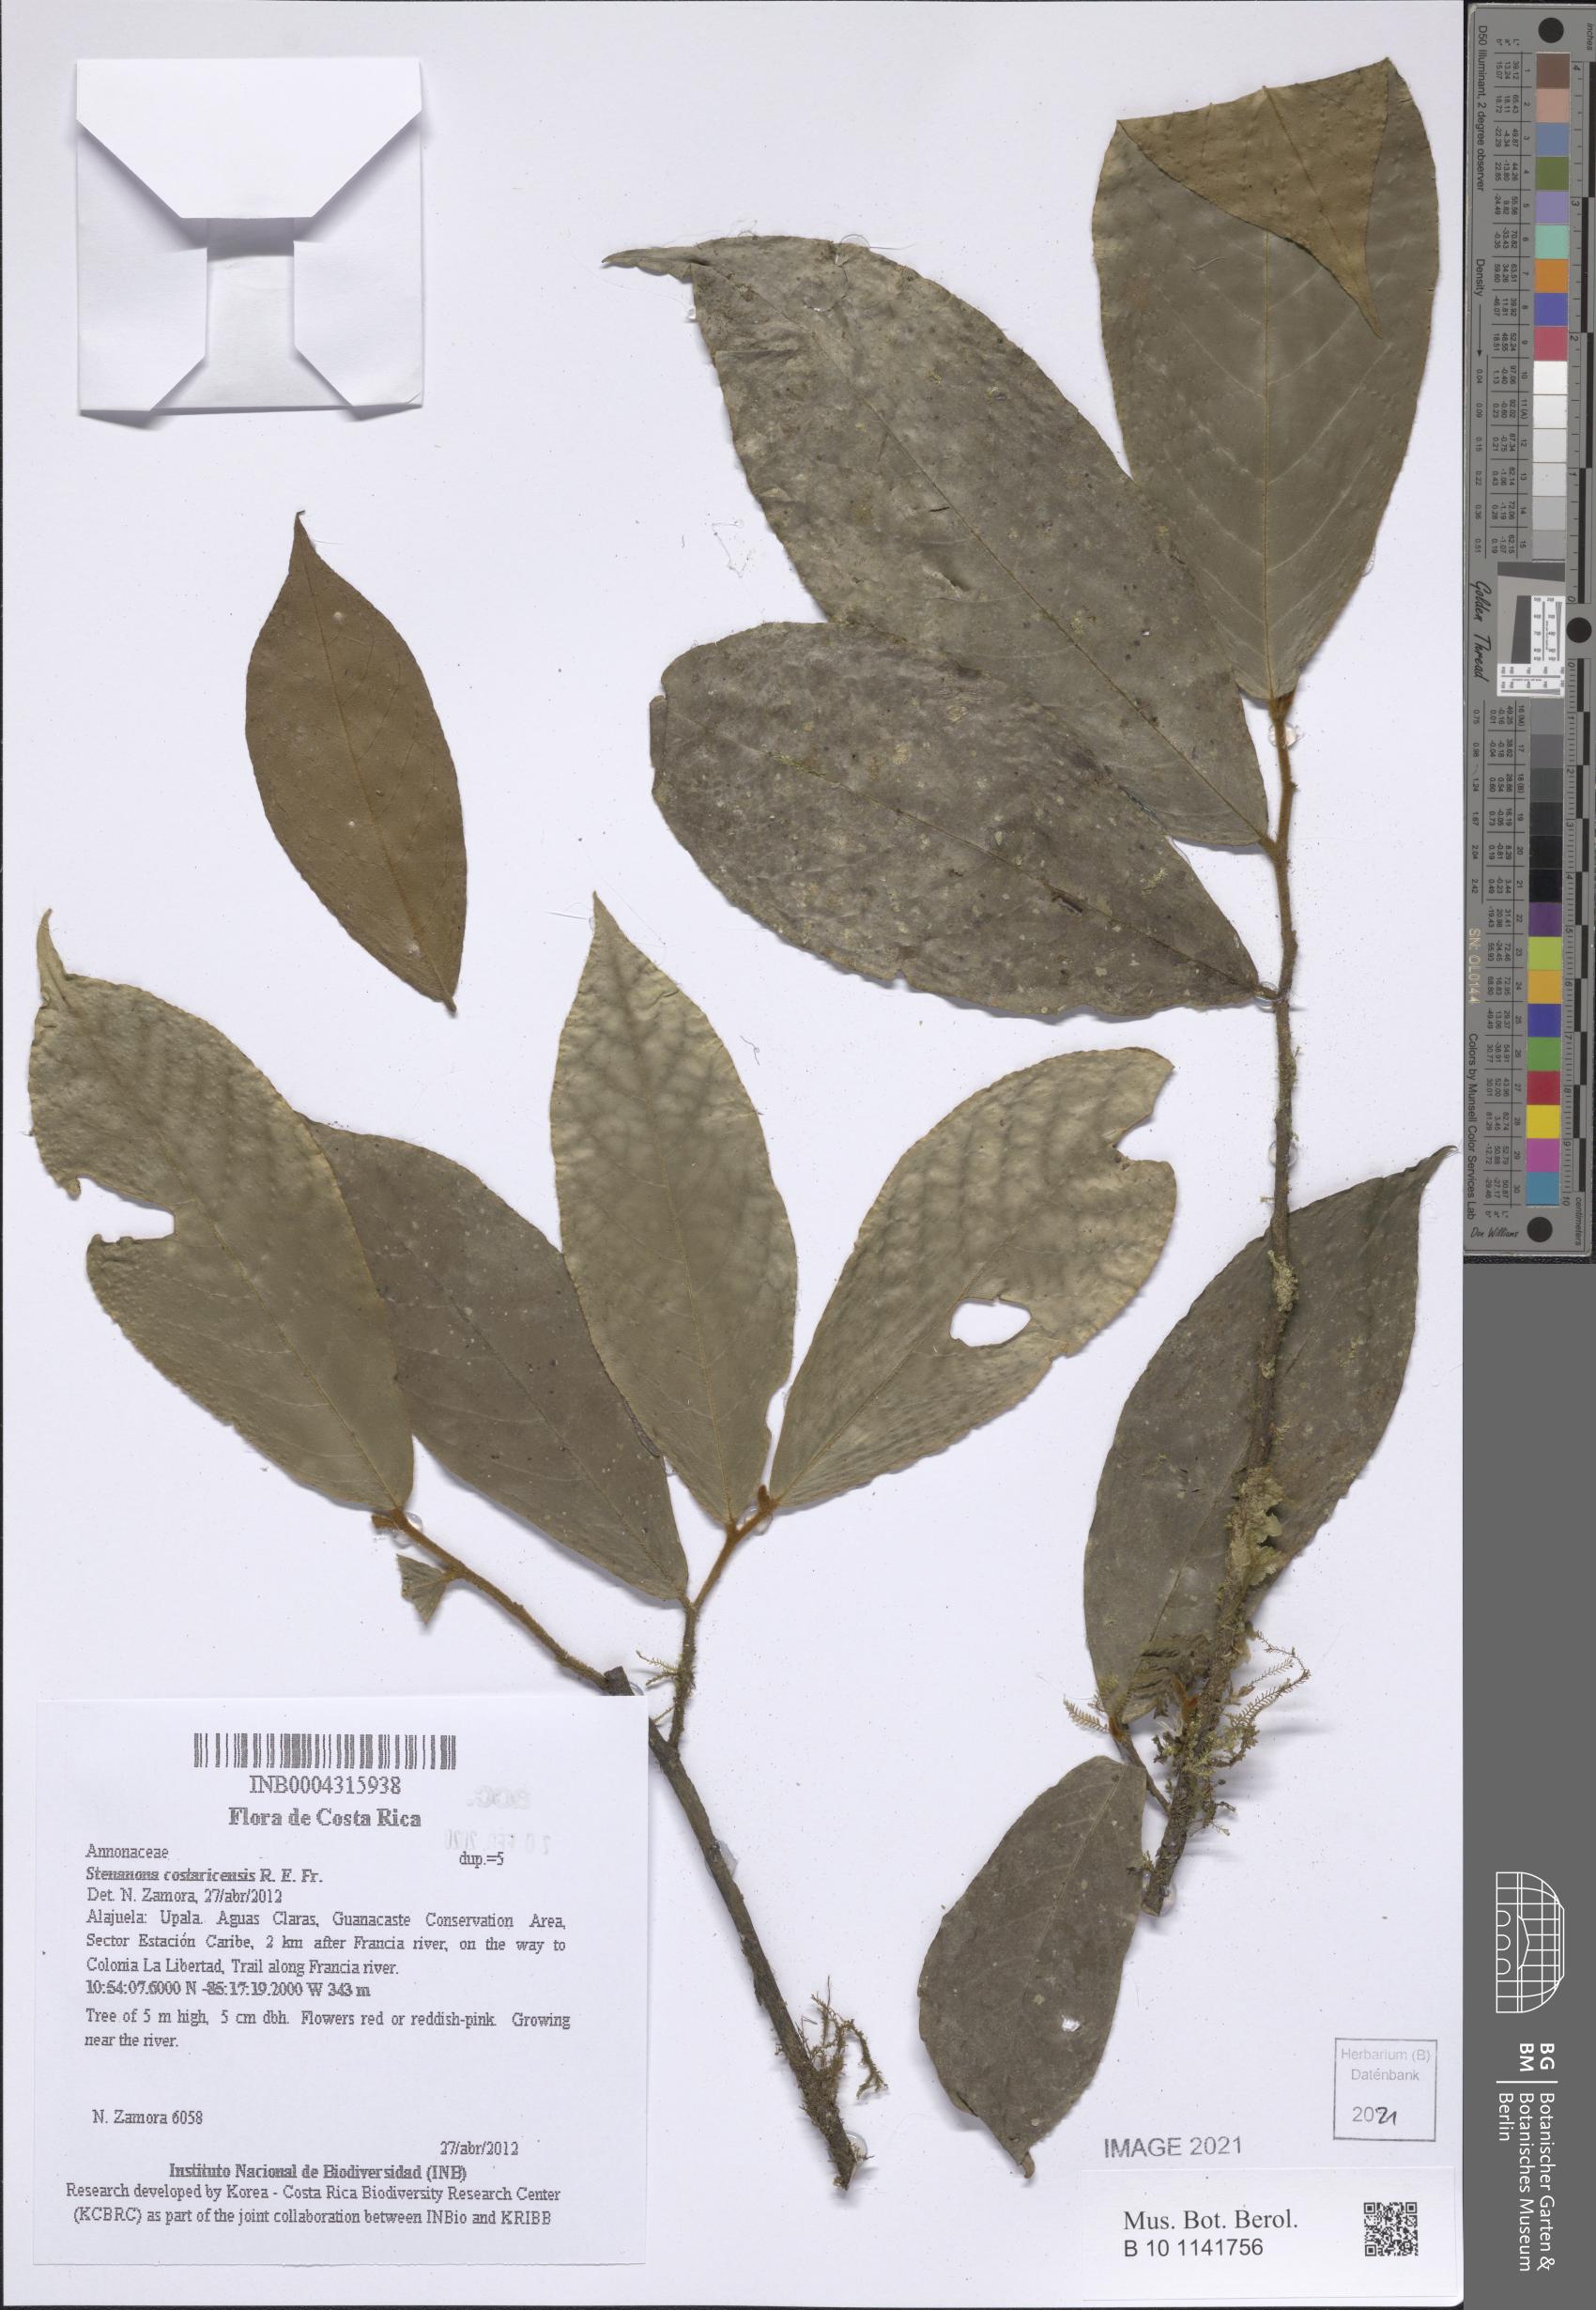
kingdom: Plantae
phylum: Tracheophyta
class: Magnoliopsida
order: Magnoliales
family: Annonaceae
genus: Stenanona
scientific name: Stenanona costaricensis
